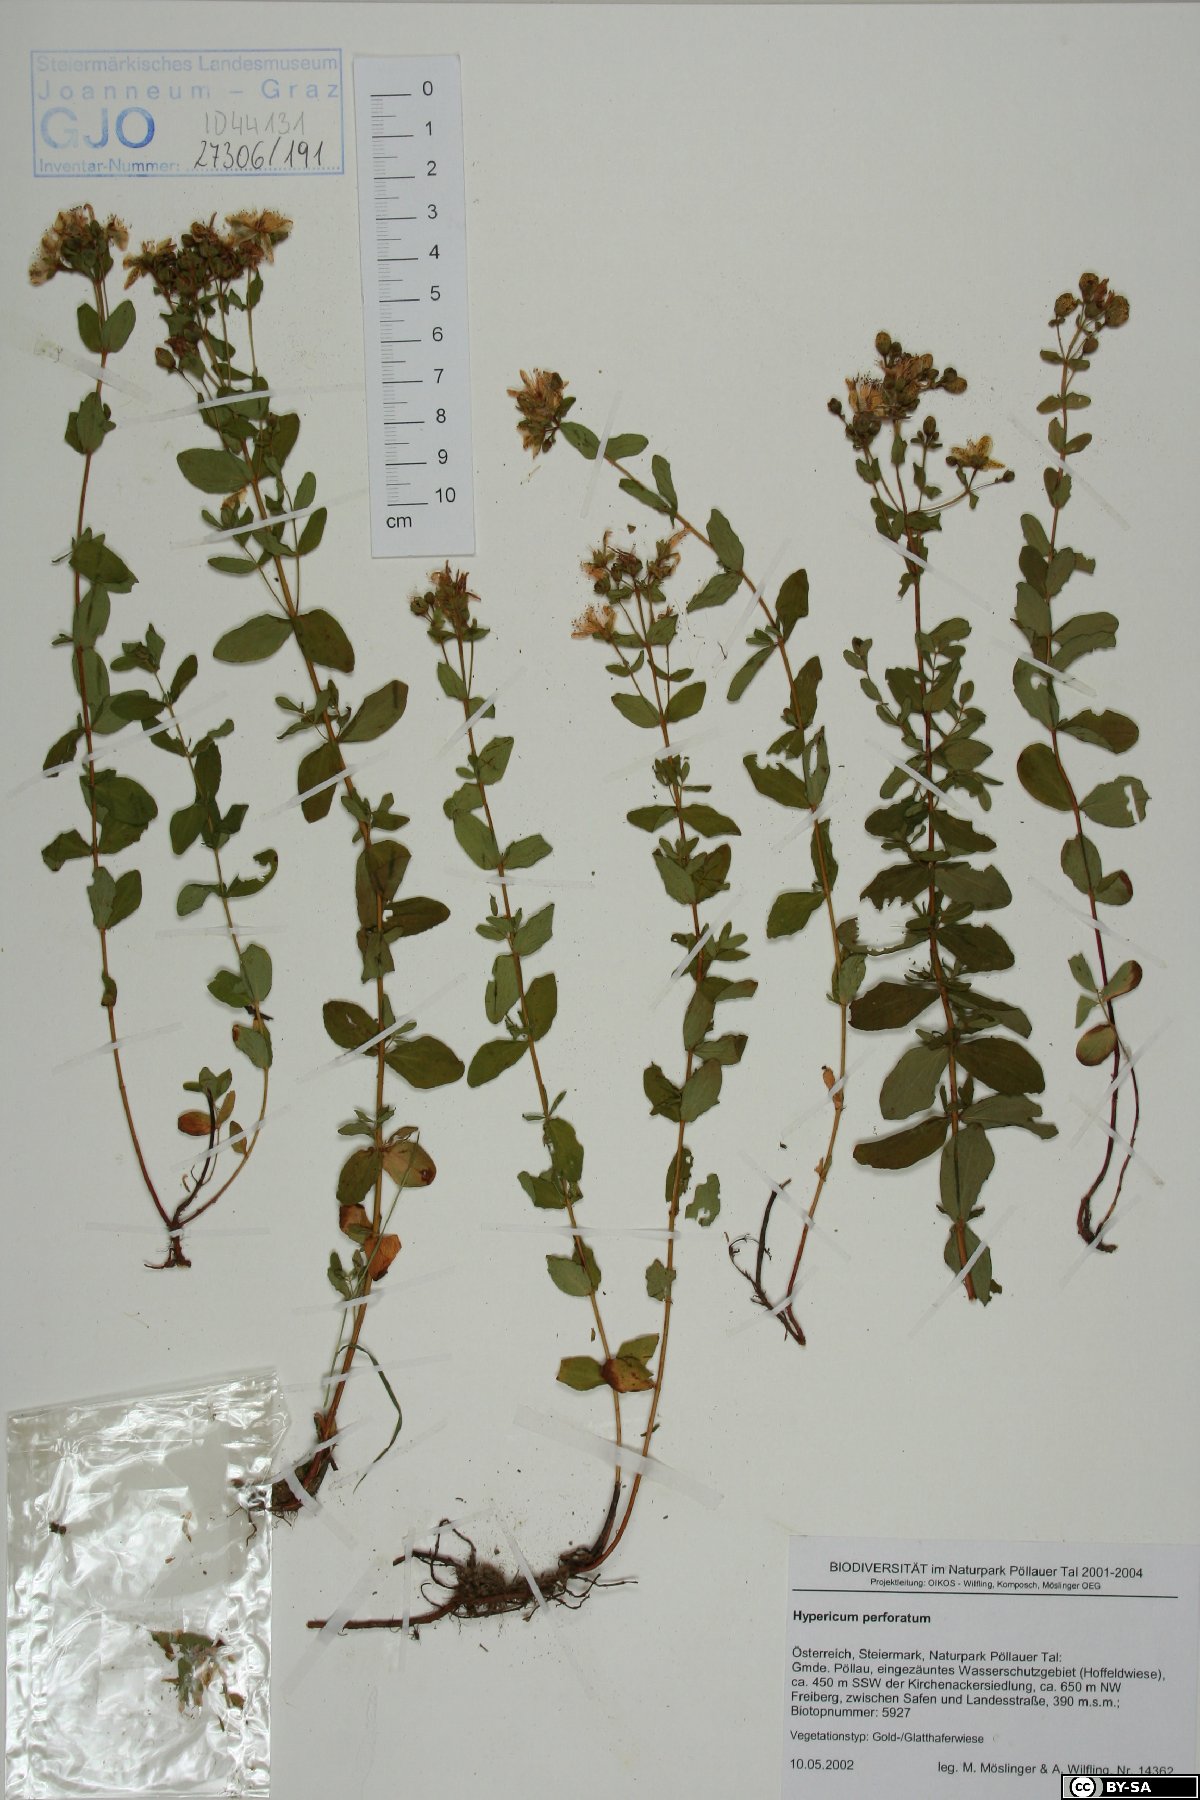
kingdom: Plantae
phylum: Tracheophyta
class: Magnoliopsida
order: Malpighiales
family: Hypericaceae
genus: Hypericum
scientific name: Hypericum perforatum
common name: Common st. johnswort
